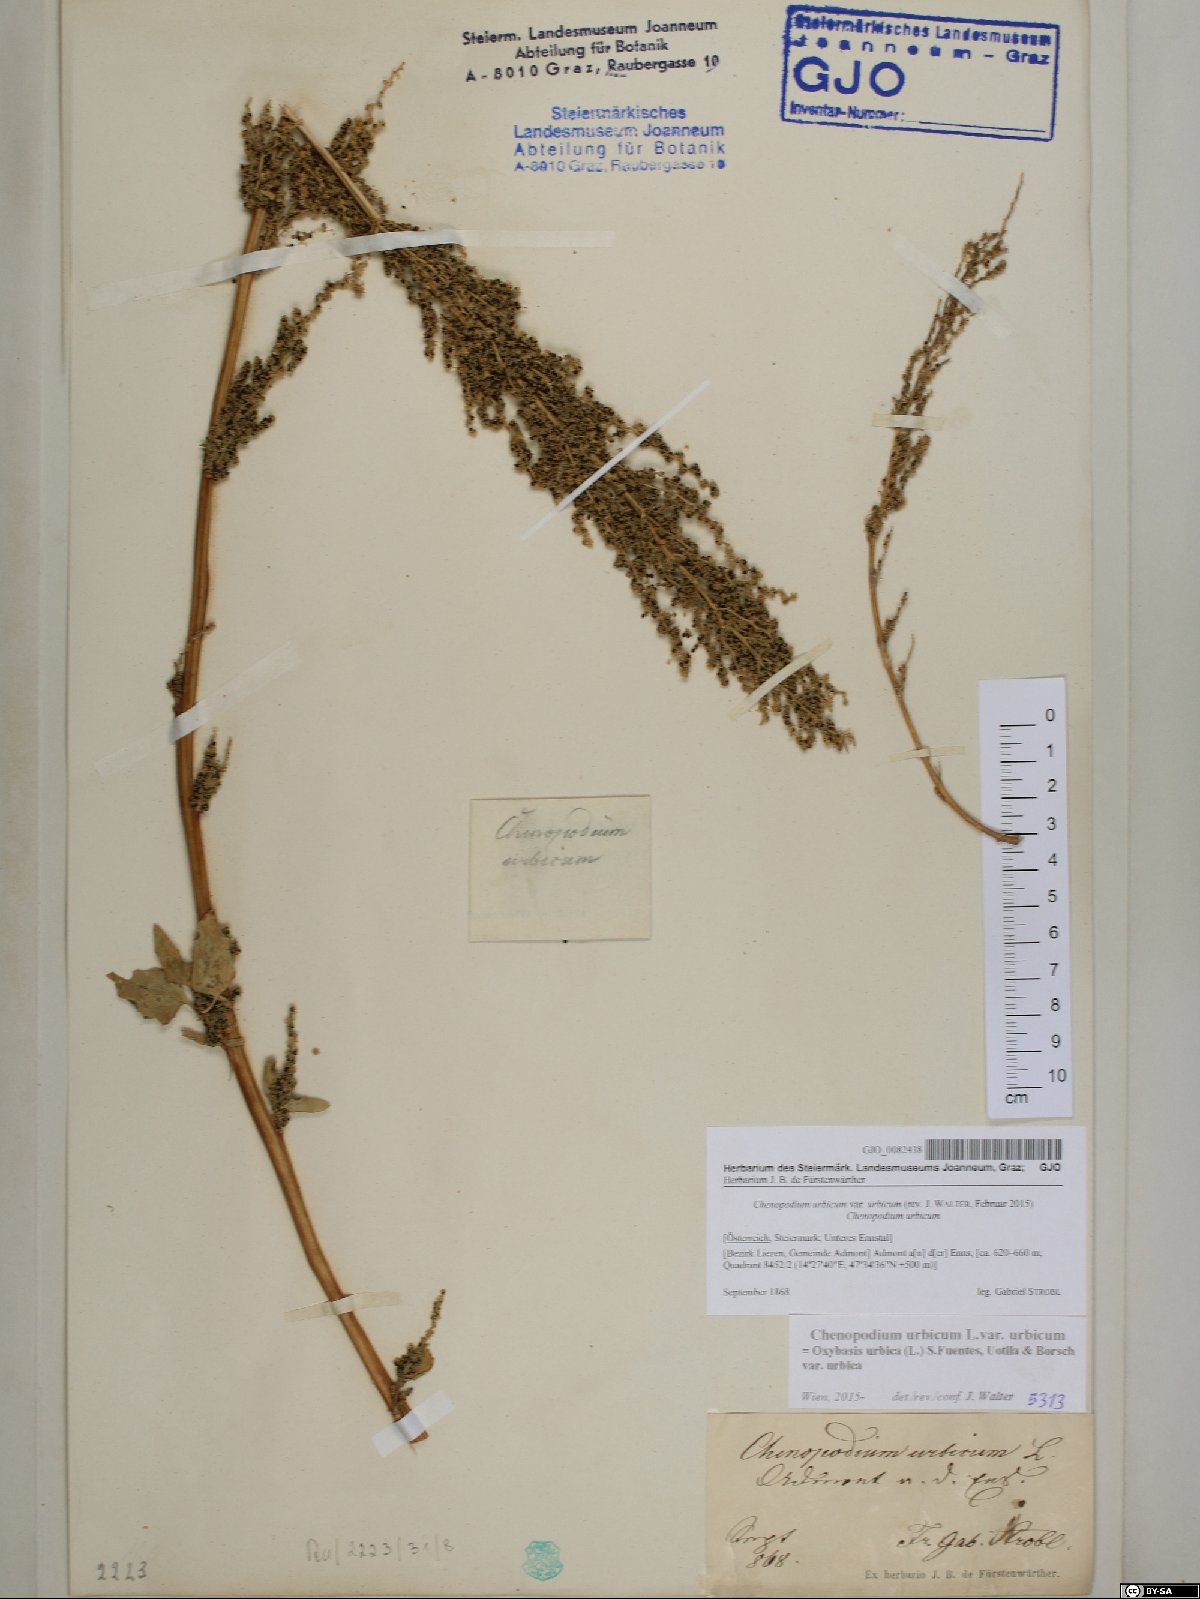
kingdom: Plantae
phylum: Tracheophyta
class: Magnoliopsida
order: Caryophyllales
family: Amaranthaceae
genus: Oxybasis
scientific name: Oxybasis urbica
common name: City goosefoot
